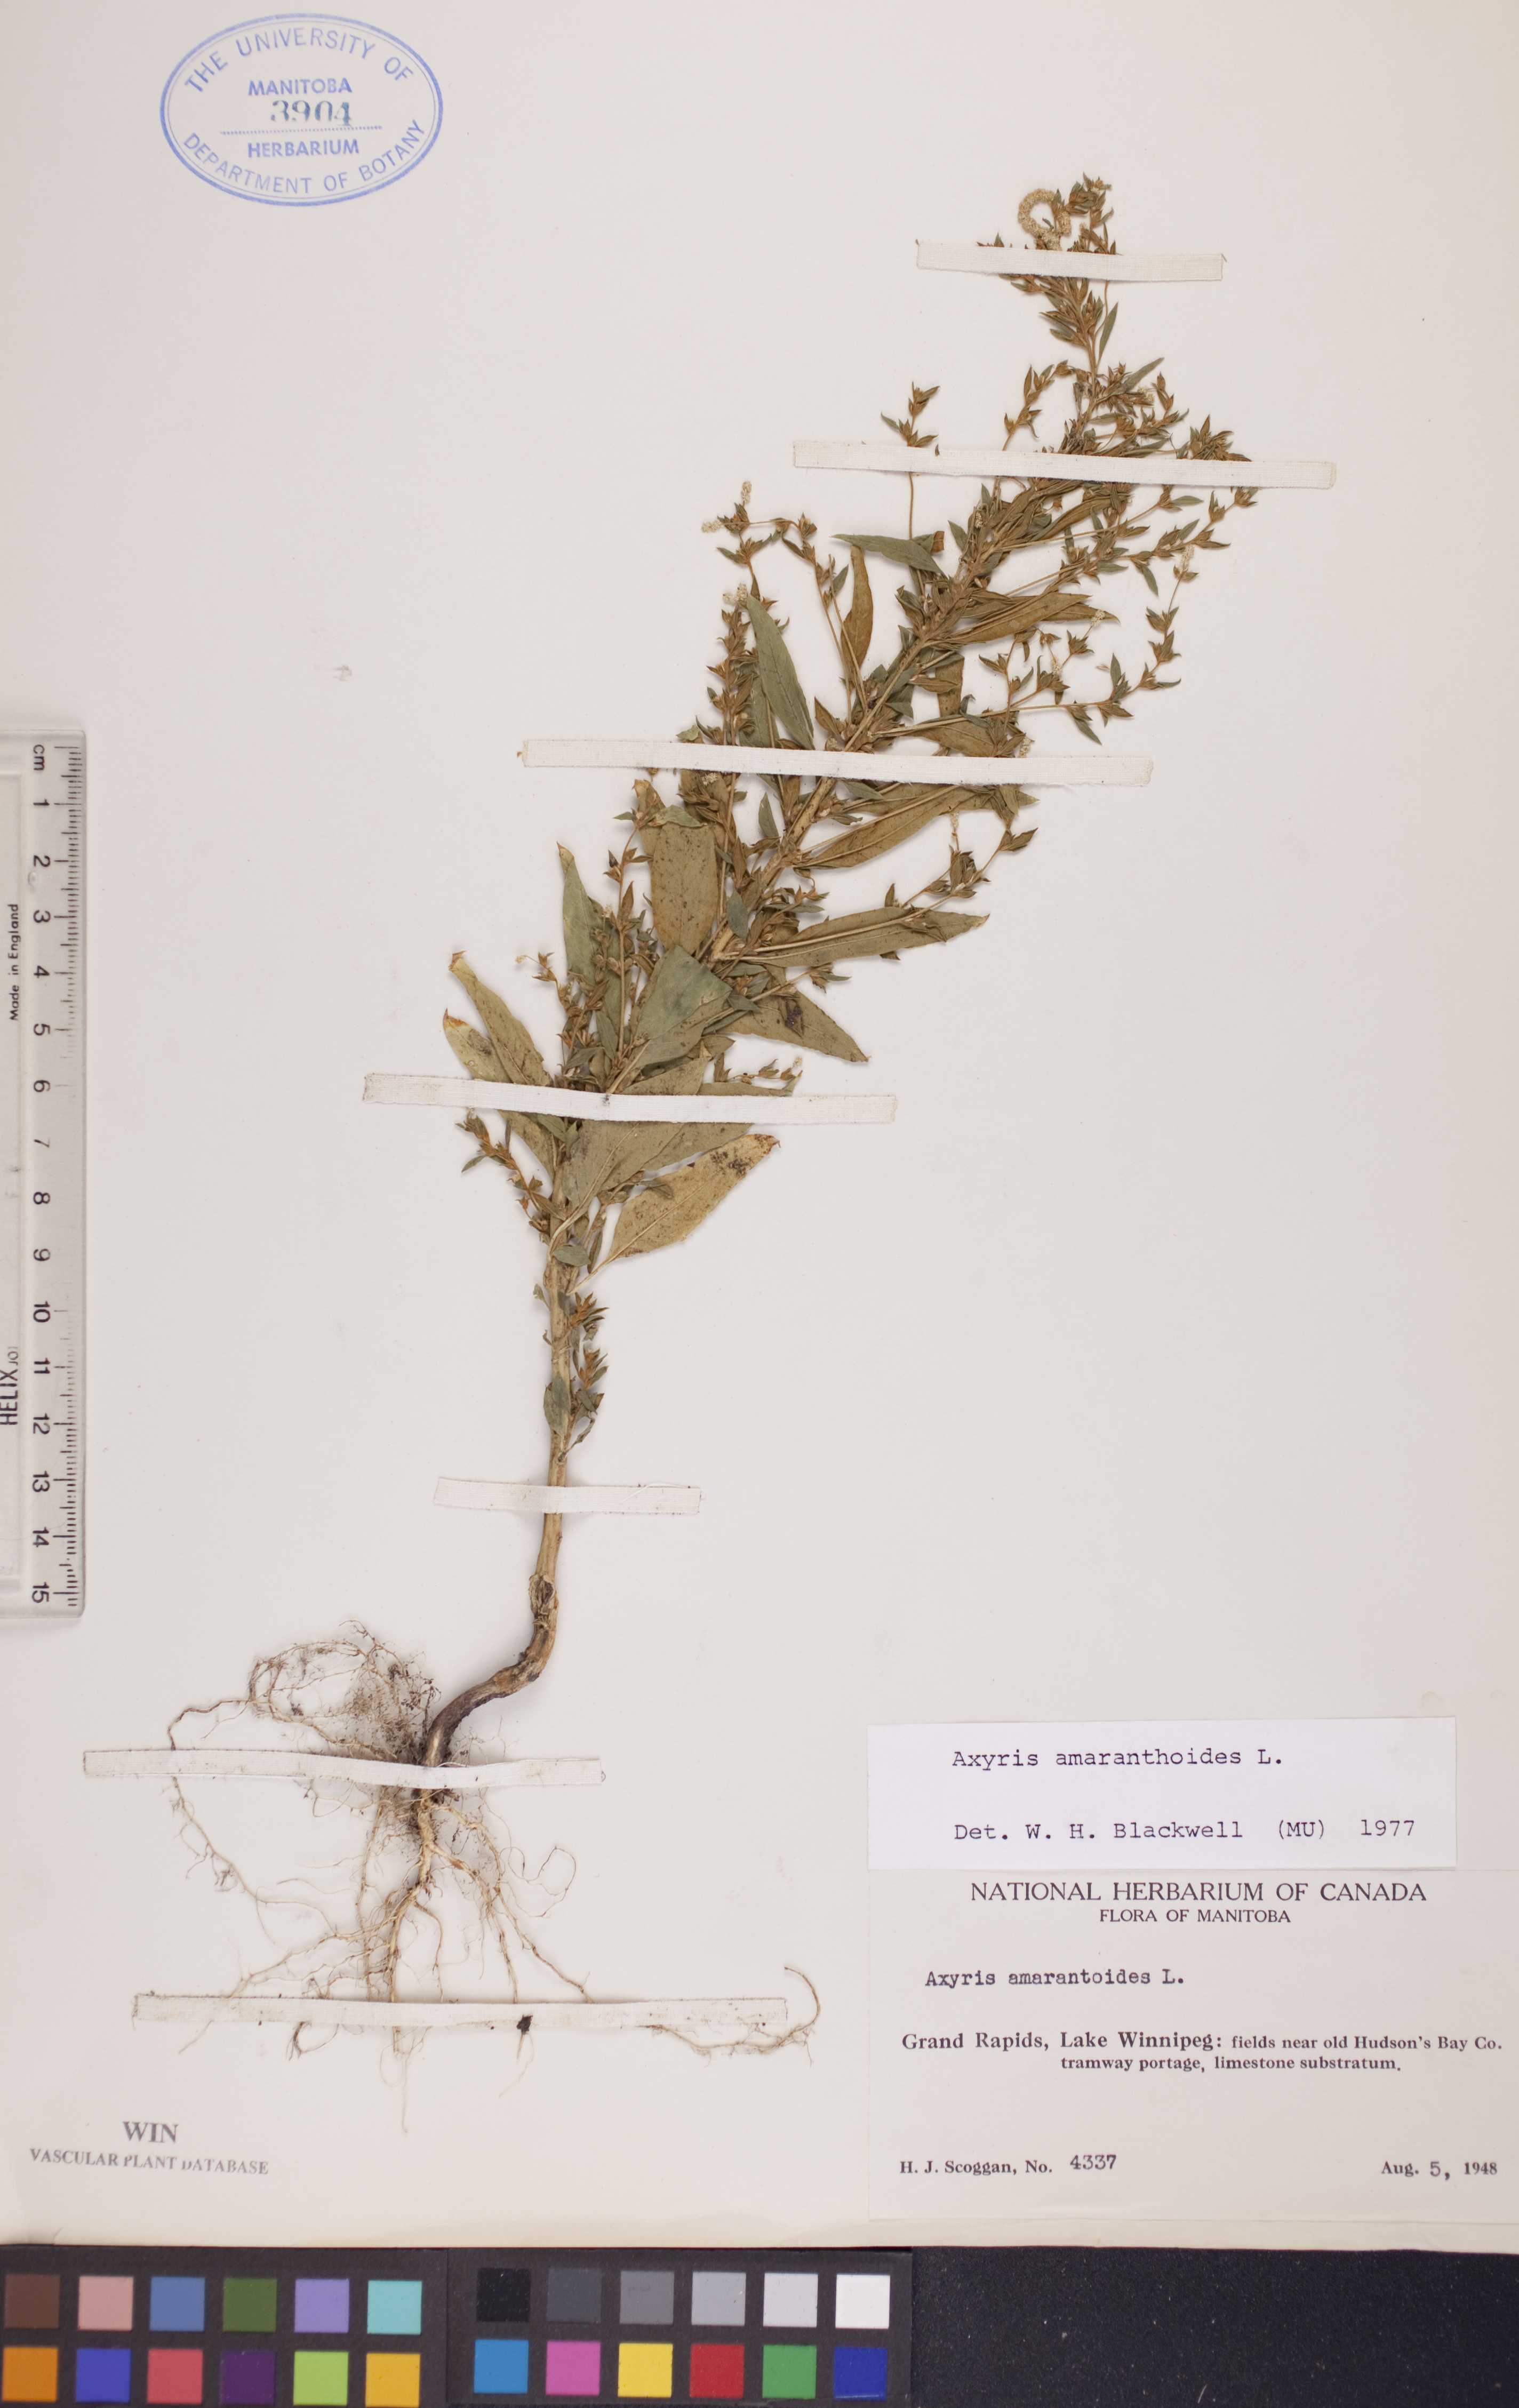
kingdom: Plantae
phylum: Tracheophyta
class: Magnoliopsida
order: Caryophyllales
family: Amaranthaceae
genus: Axyris
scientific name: Axyris amaranthoides
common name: Russian pigweed
